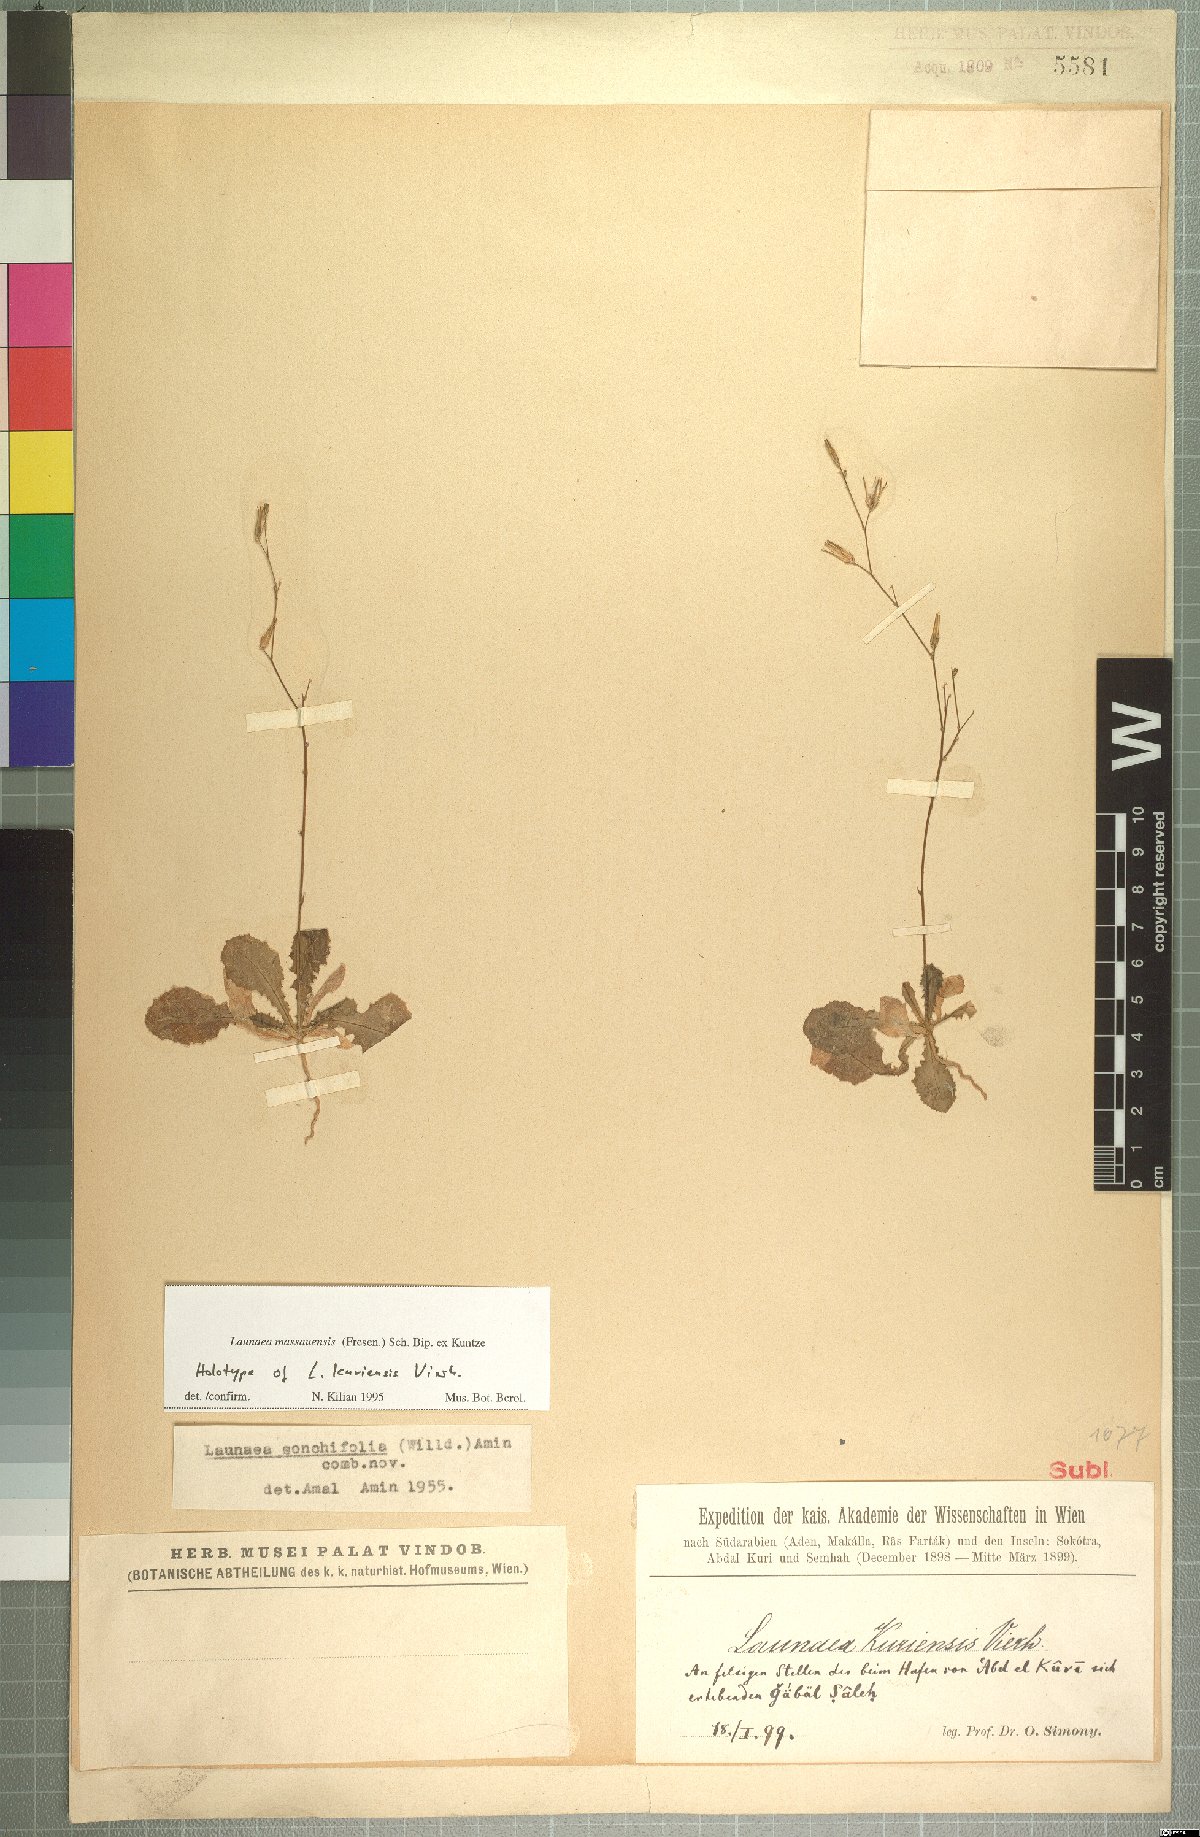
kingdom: Plantae
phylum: Tracheophyta
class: Magnoliopsida
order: Asterales
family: Asteraceae
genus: Launaea
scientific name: Launaea massauensis
